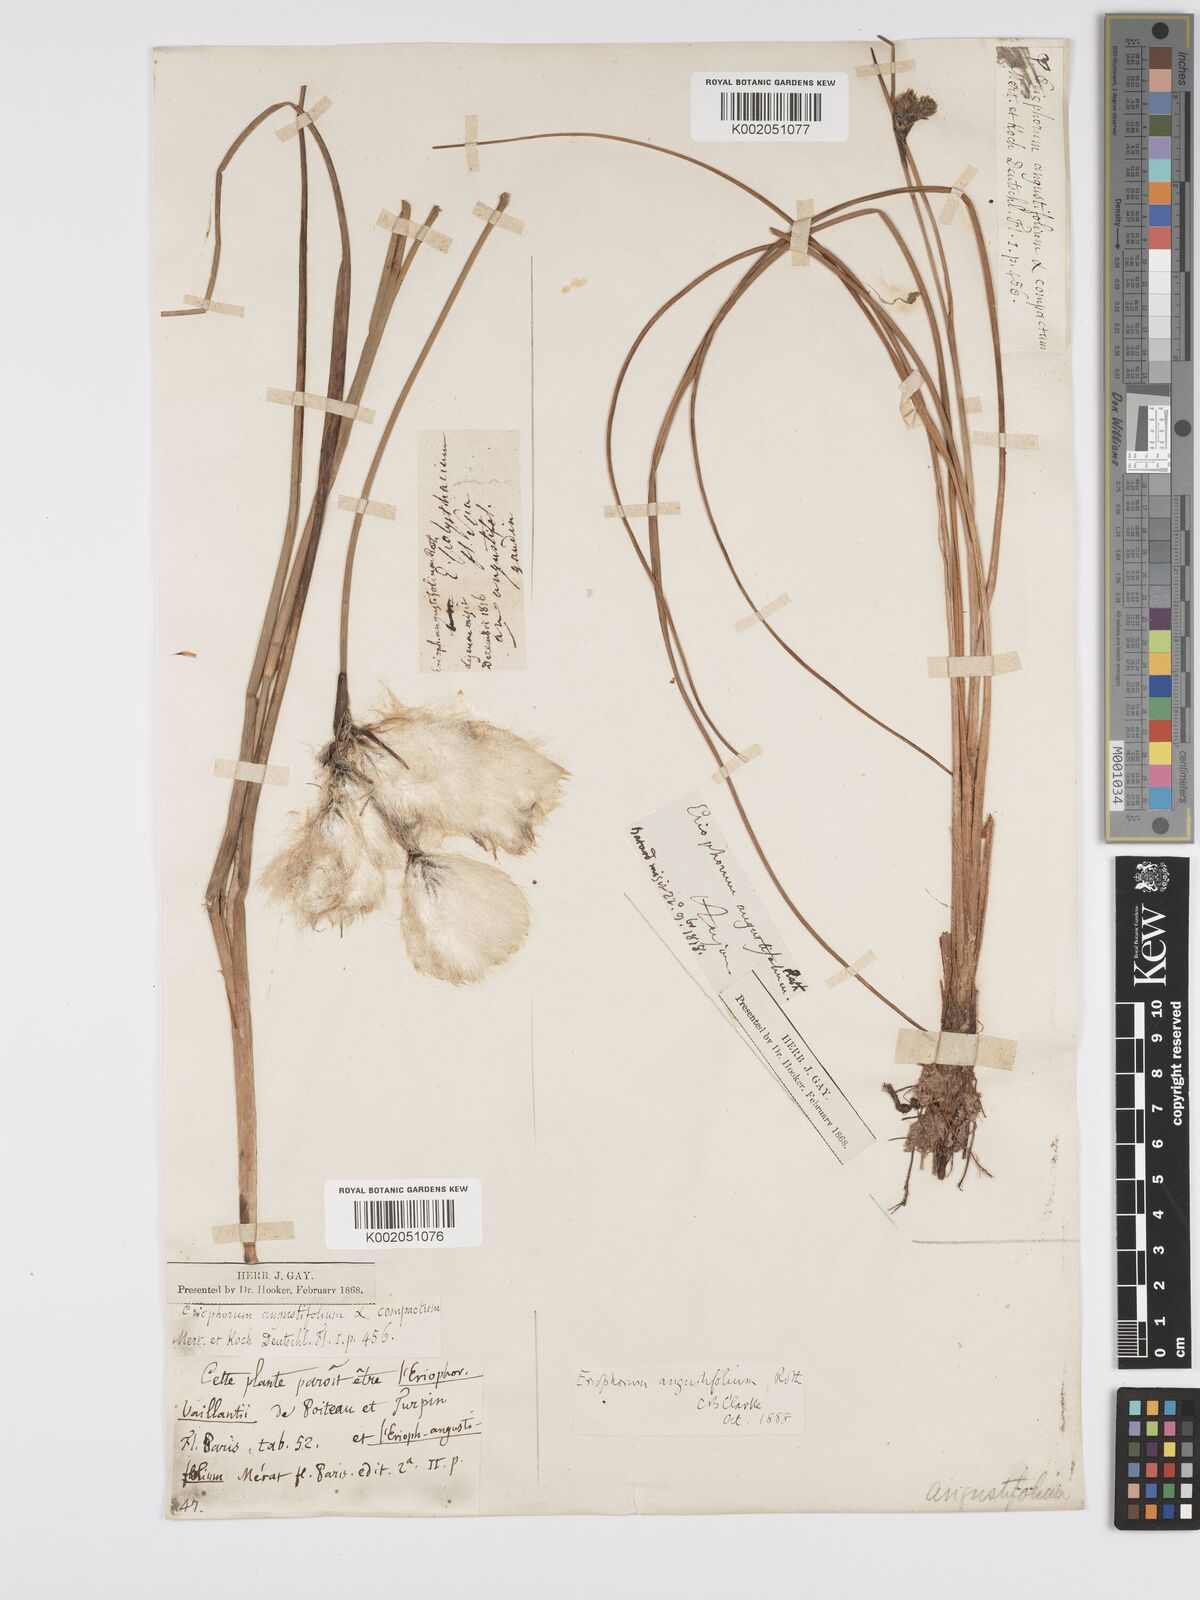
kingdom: Plantae
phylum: Tracheophyta
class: Liliopsida
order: Poales
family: Cyperaceae
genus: Eriophorum
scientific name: Eriophorum angustifolium
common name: Common cottongrass
